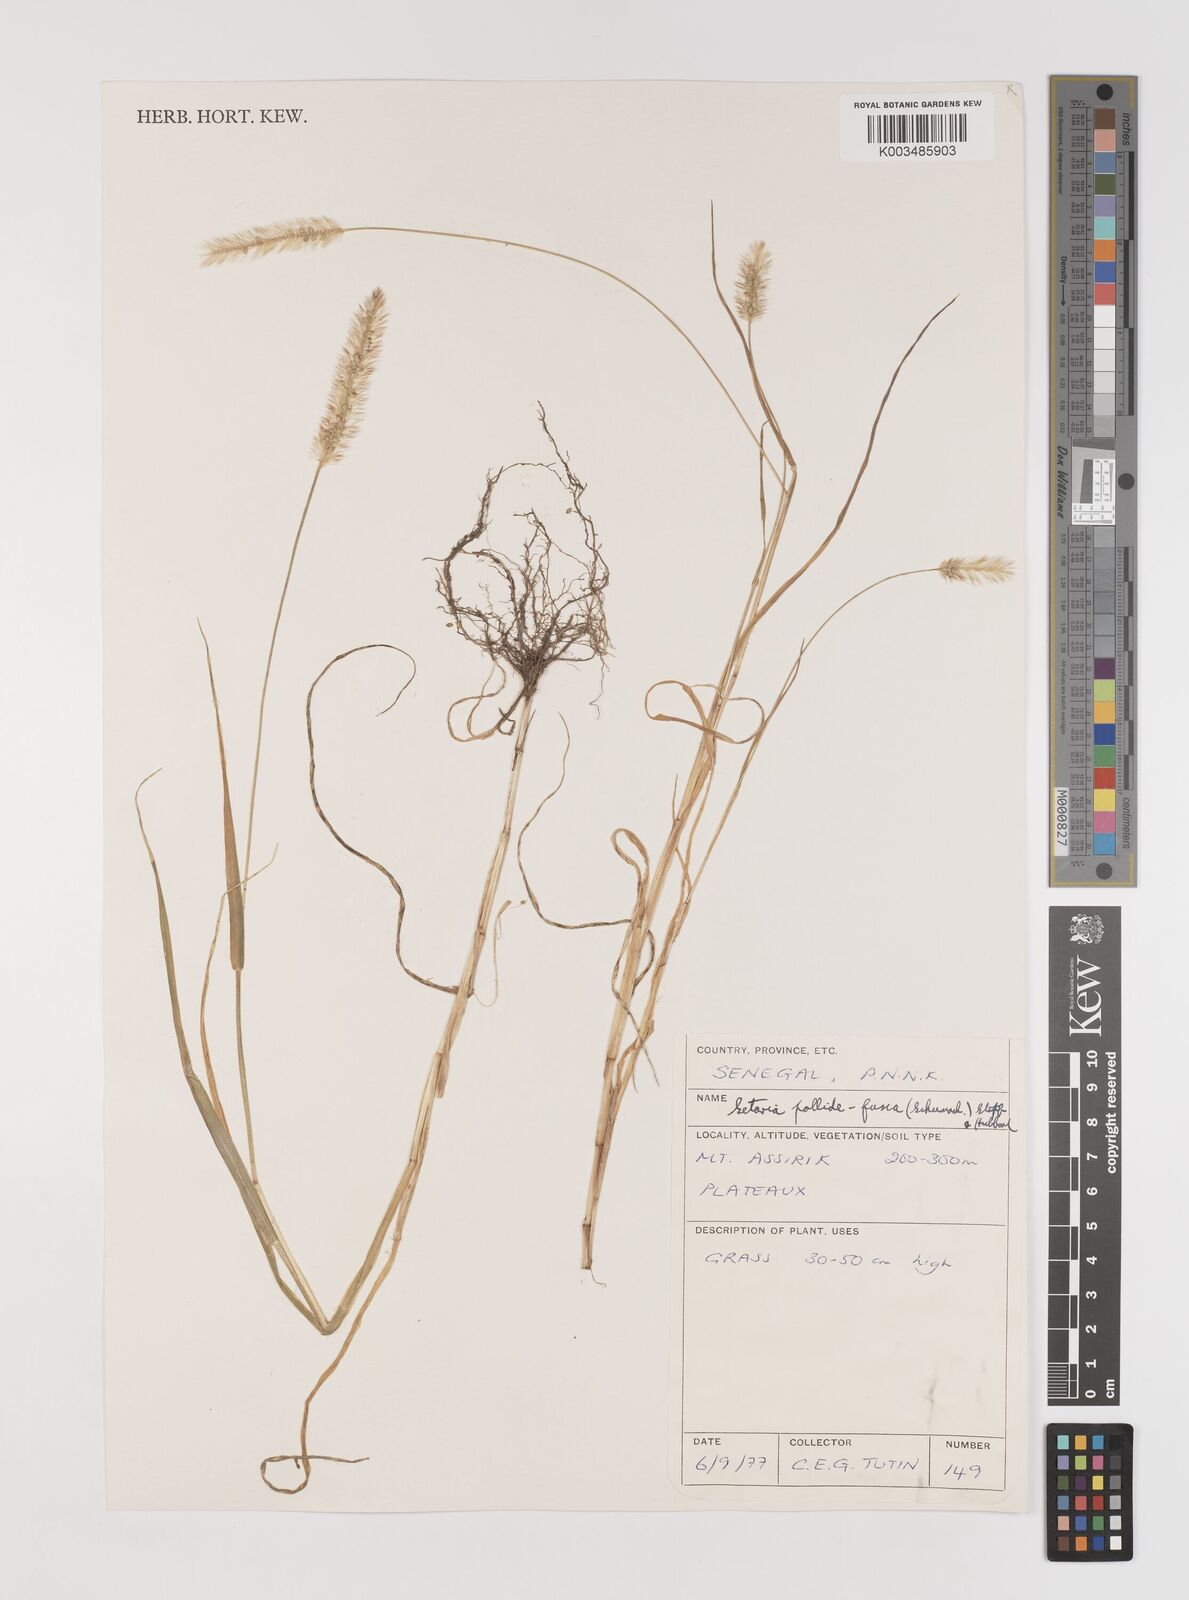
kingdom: Plantae
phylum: Tracheophyta
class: Liliopsida
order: Poales
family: Poaceae
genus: Setaria
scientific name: Setaria pumila
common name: Yellow bristle-grass
